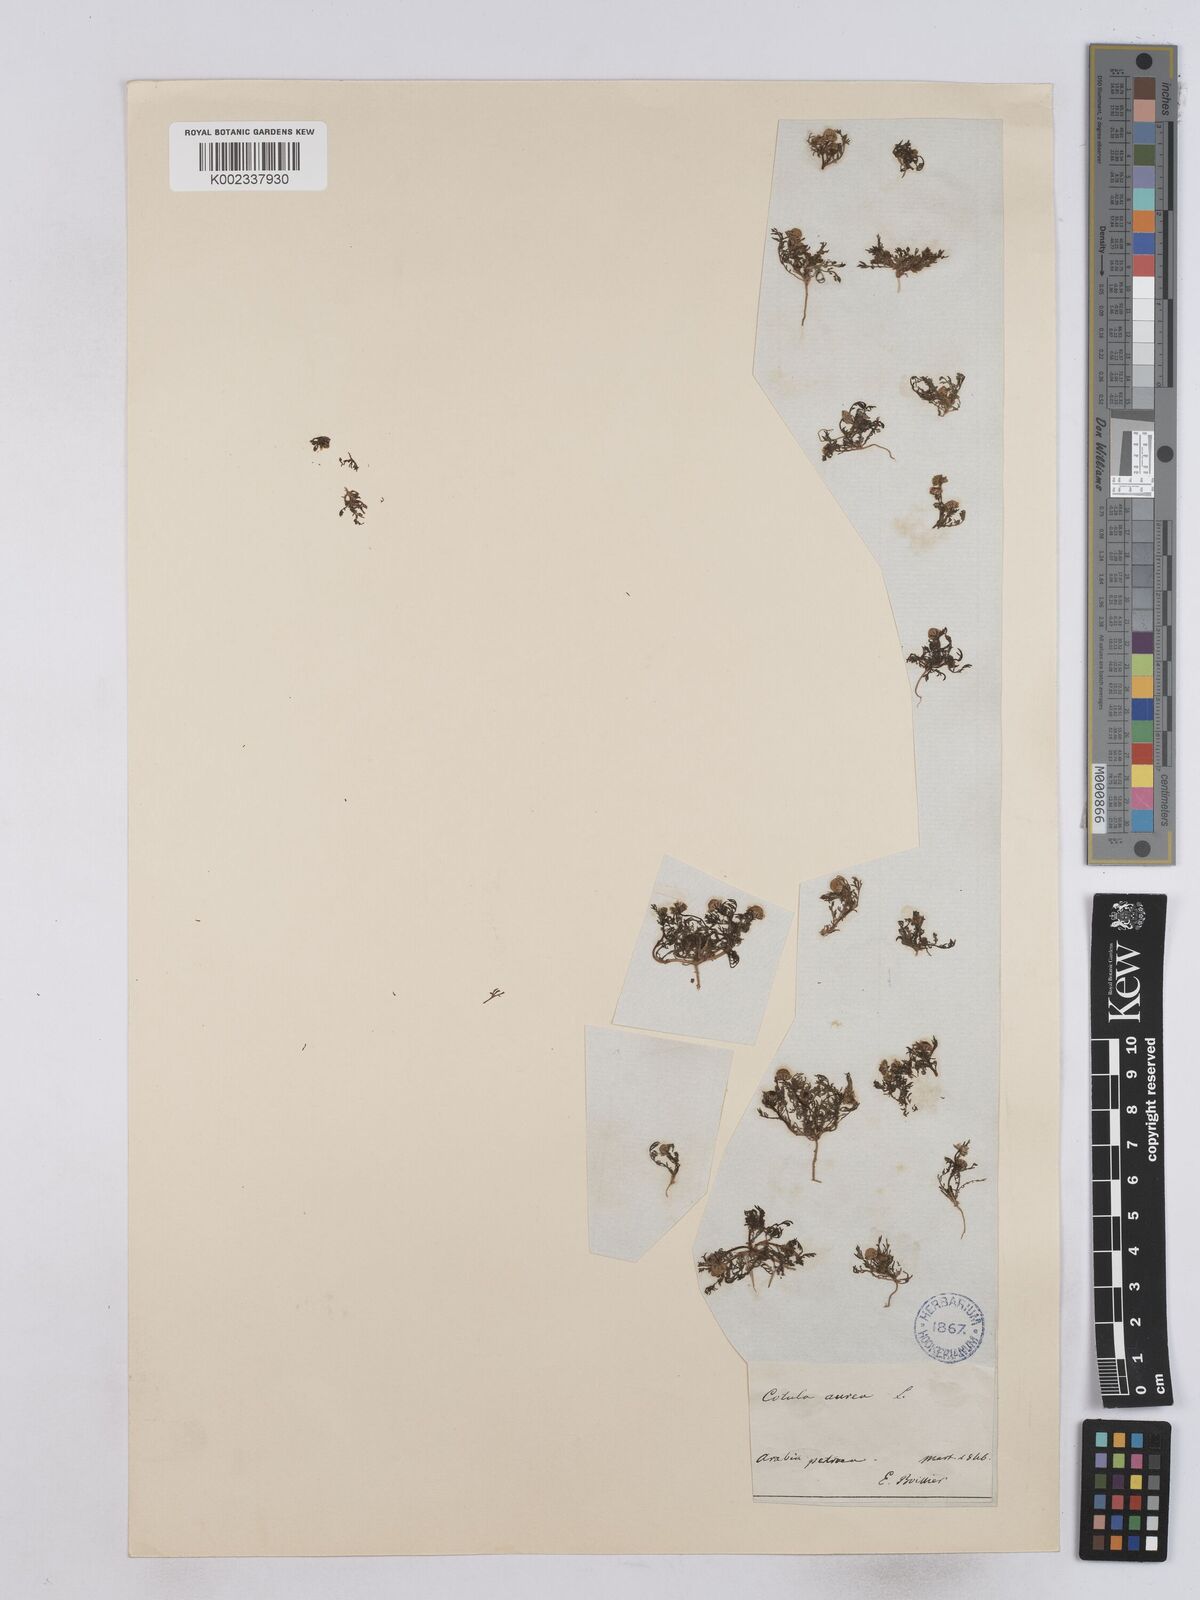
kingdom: Plantae
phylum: Tracheophyta
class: Magnoliopsida
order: Asterales
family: Asteraceae
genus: Matricaria
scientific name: Matricaria aurea
